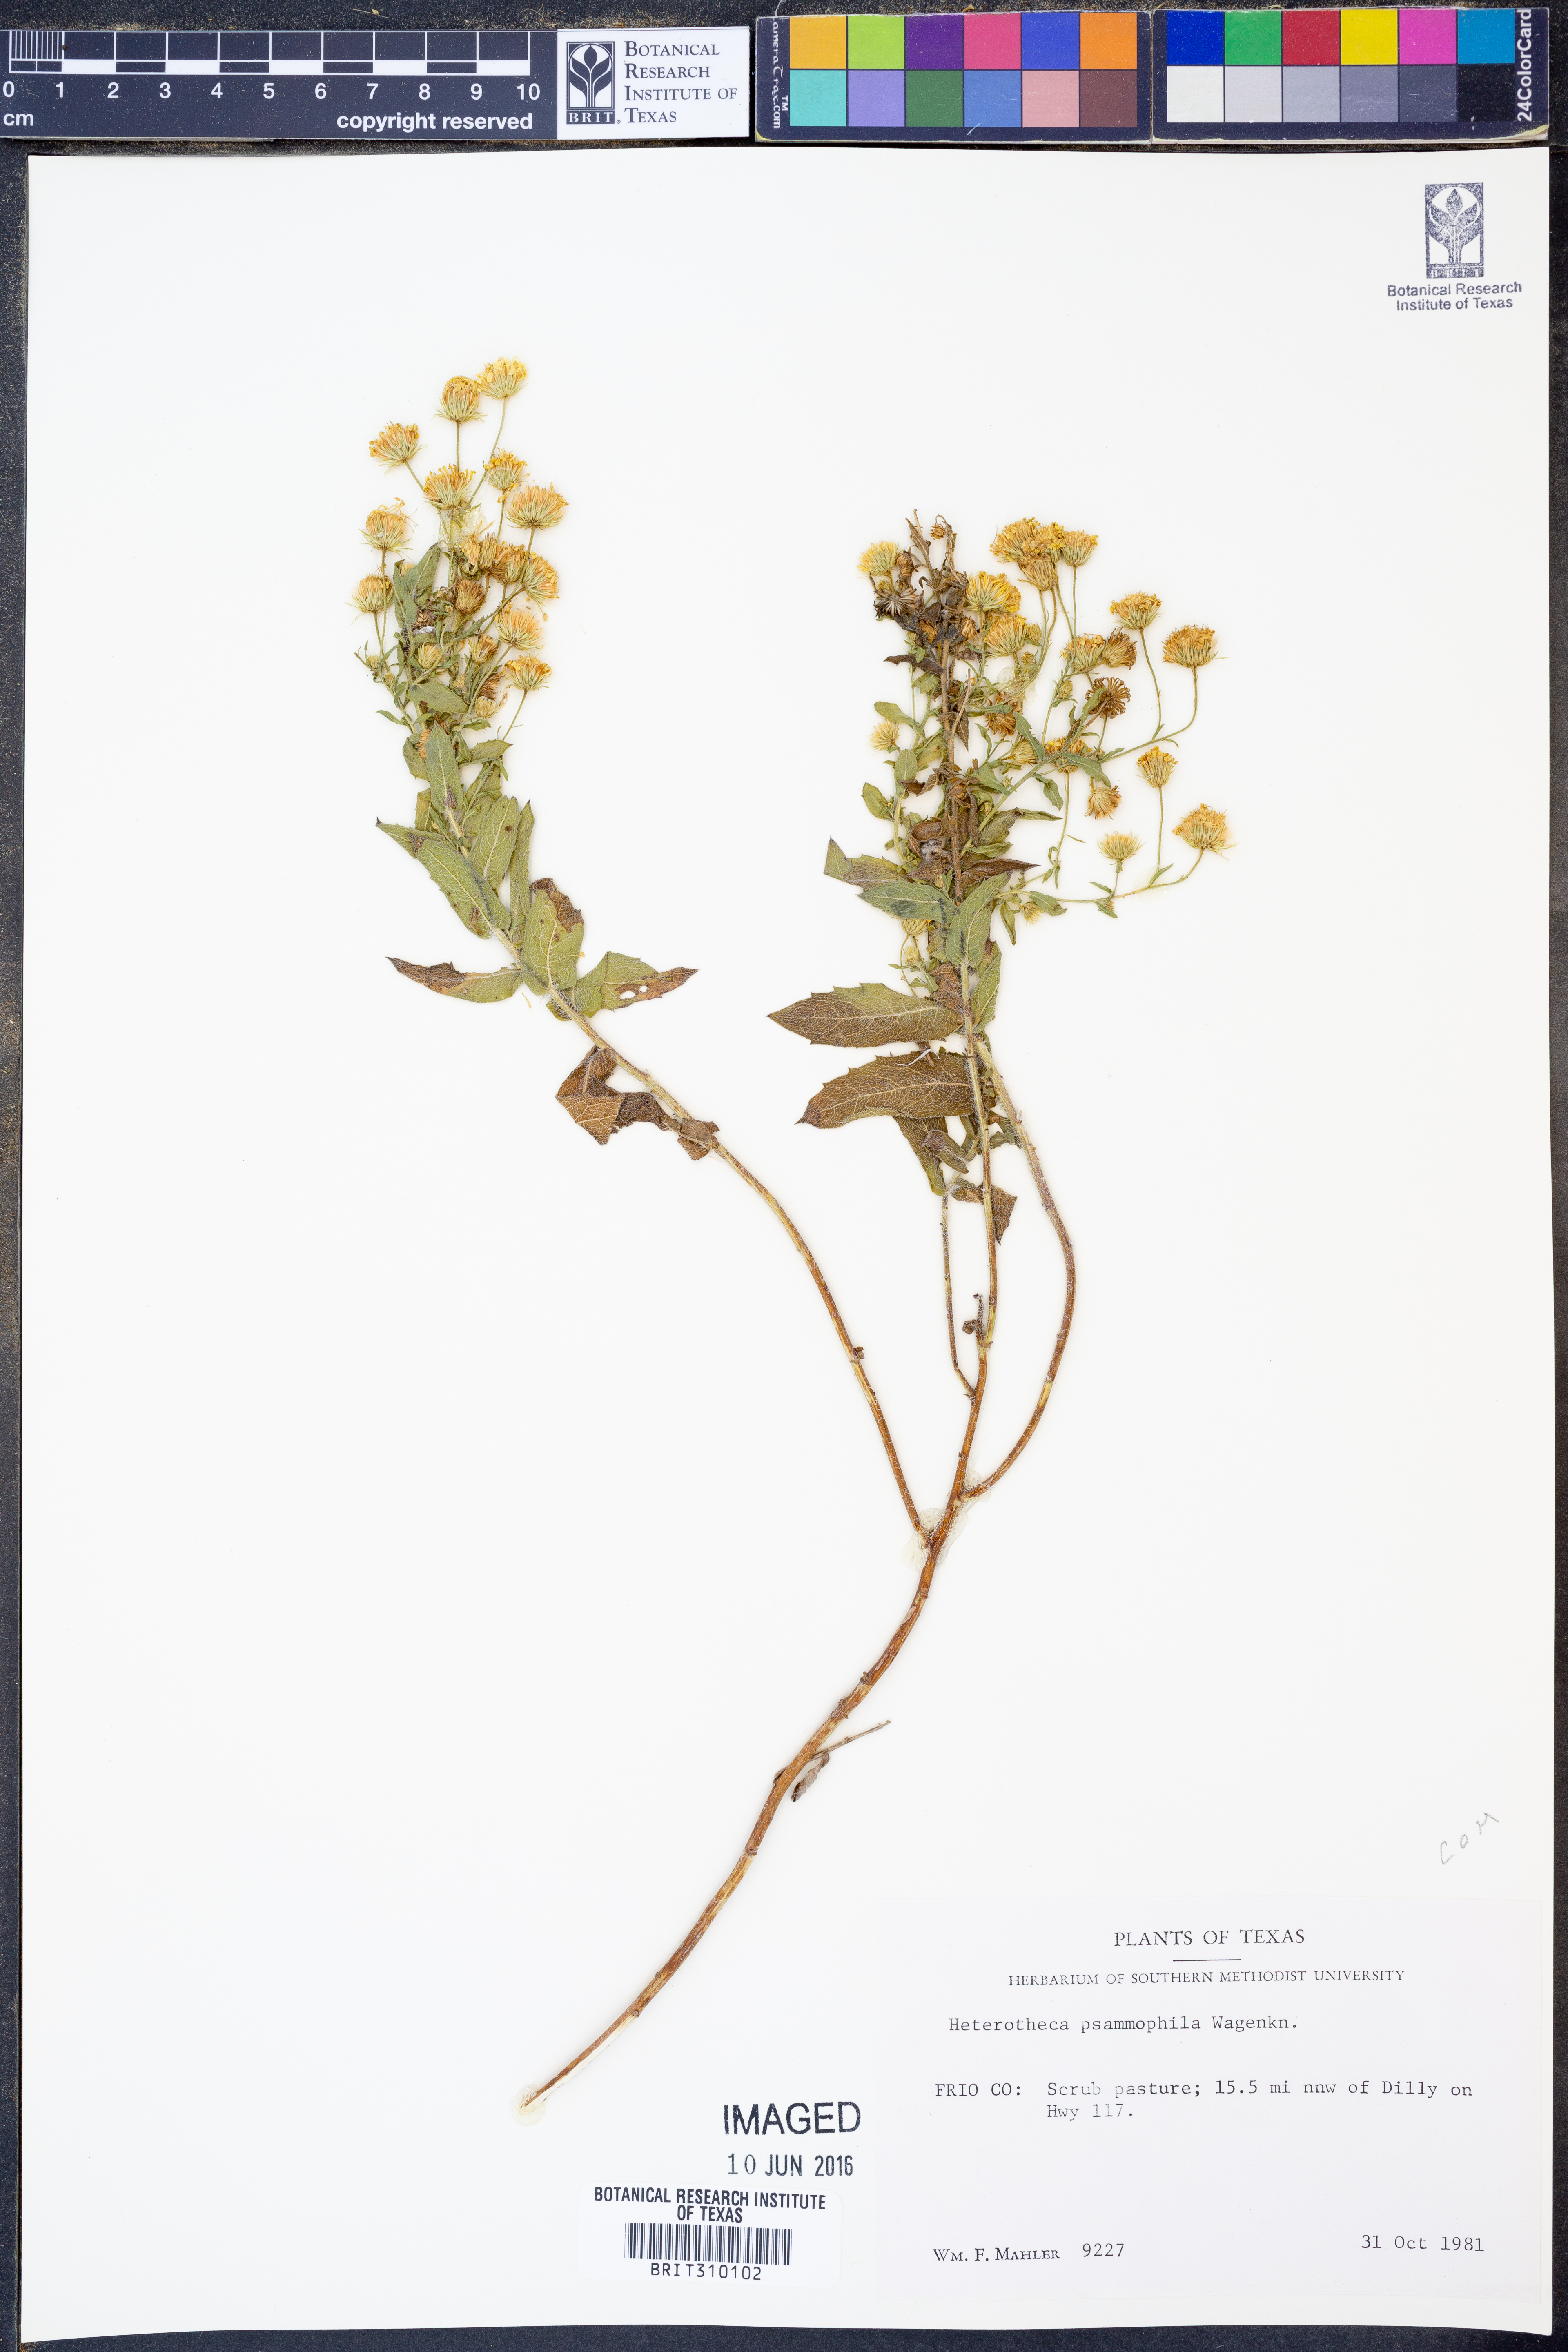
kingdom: Plantae
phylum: Tracheophyta
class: Magnoliopsida
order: Asterales
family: Asteraceae
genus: Heterotheca
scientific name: Heterotheca psammophila
